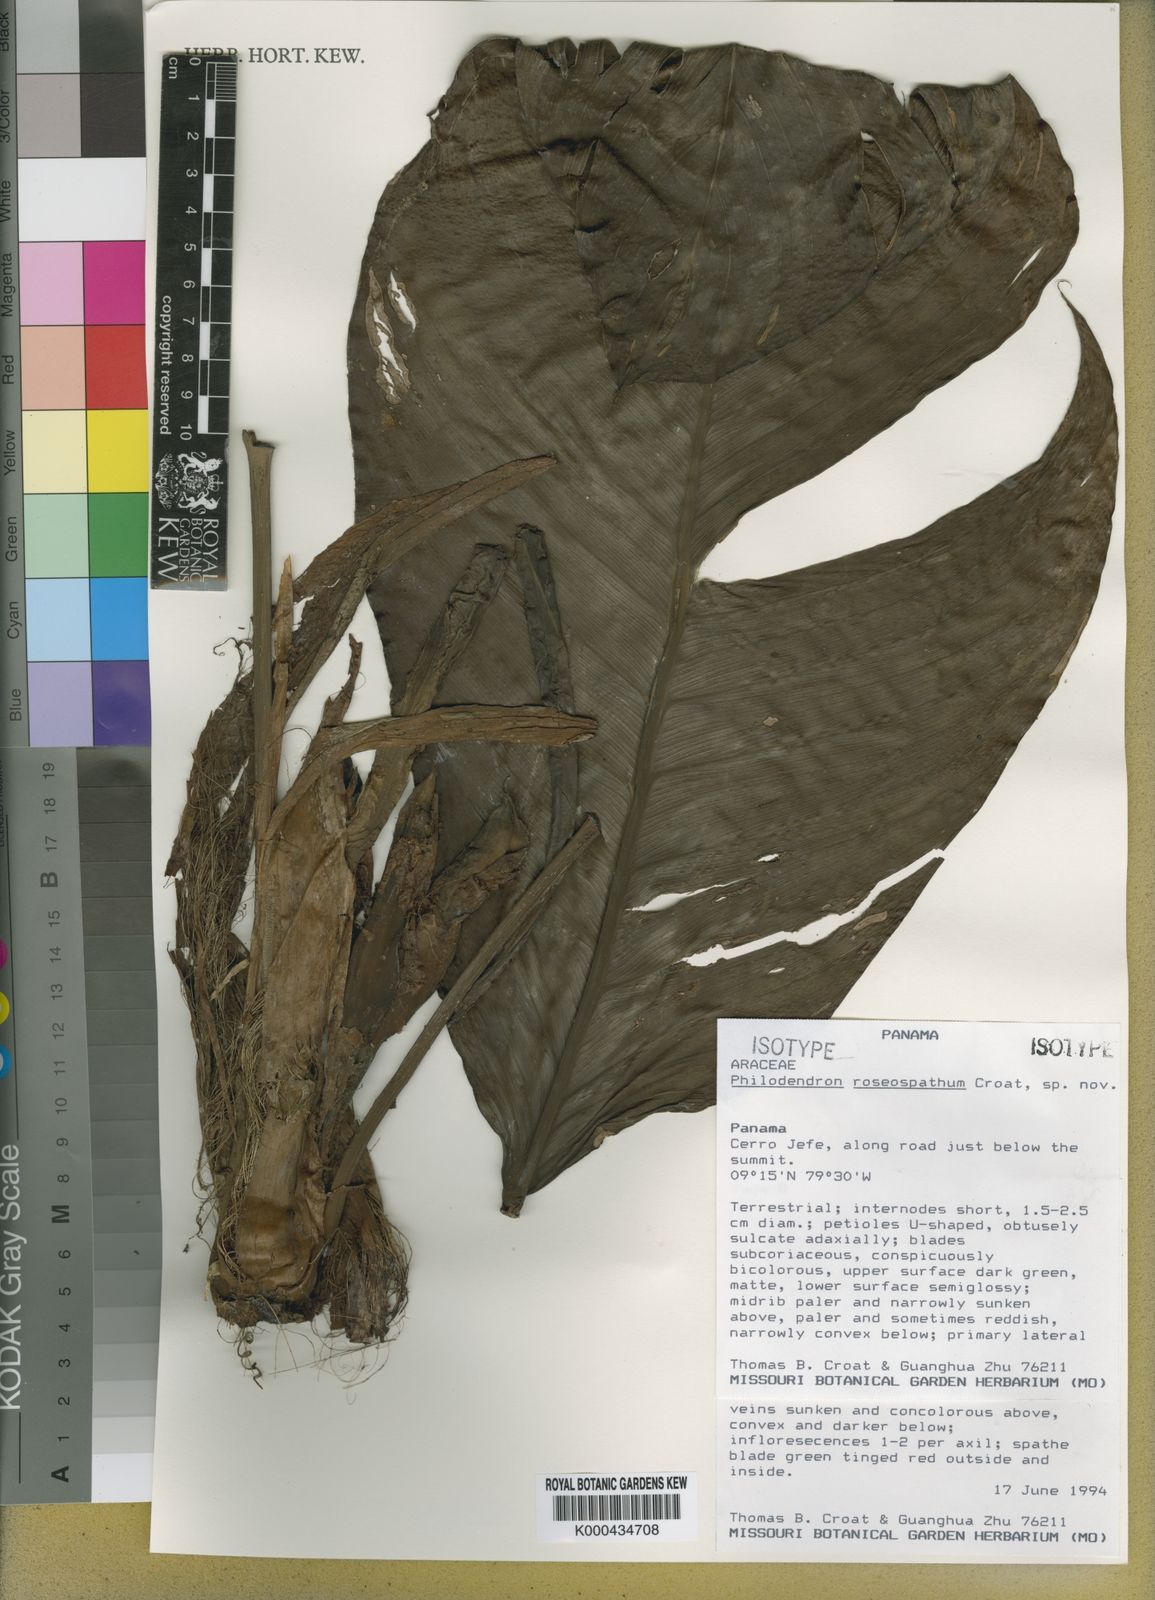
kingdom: Plantae
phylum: Tracheophyta
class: Liliopsida
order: Alismatales
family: Araceae
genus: Philodendron
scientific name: Philodendron roseospathum
